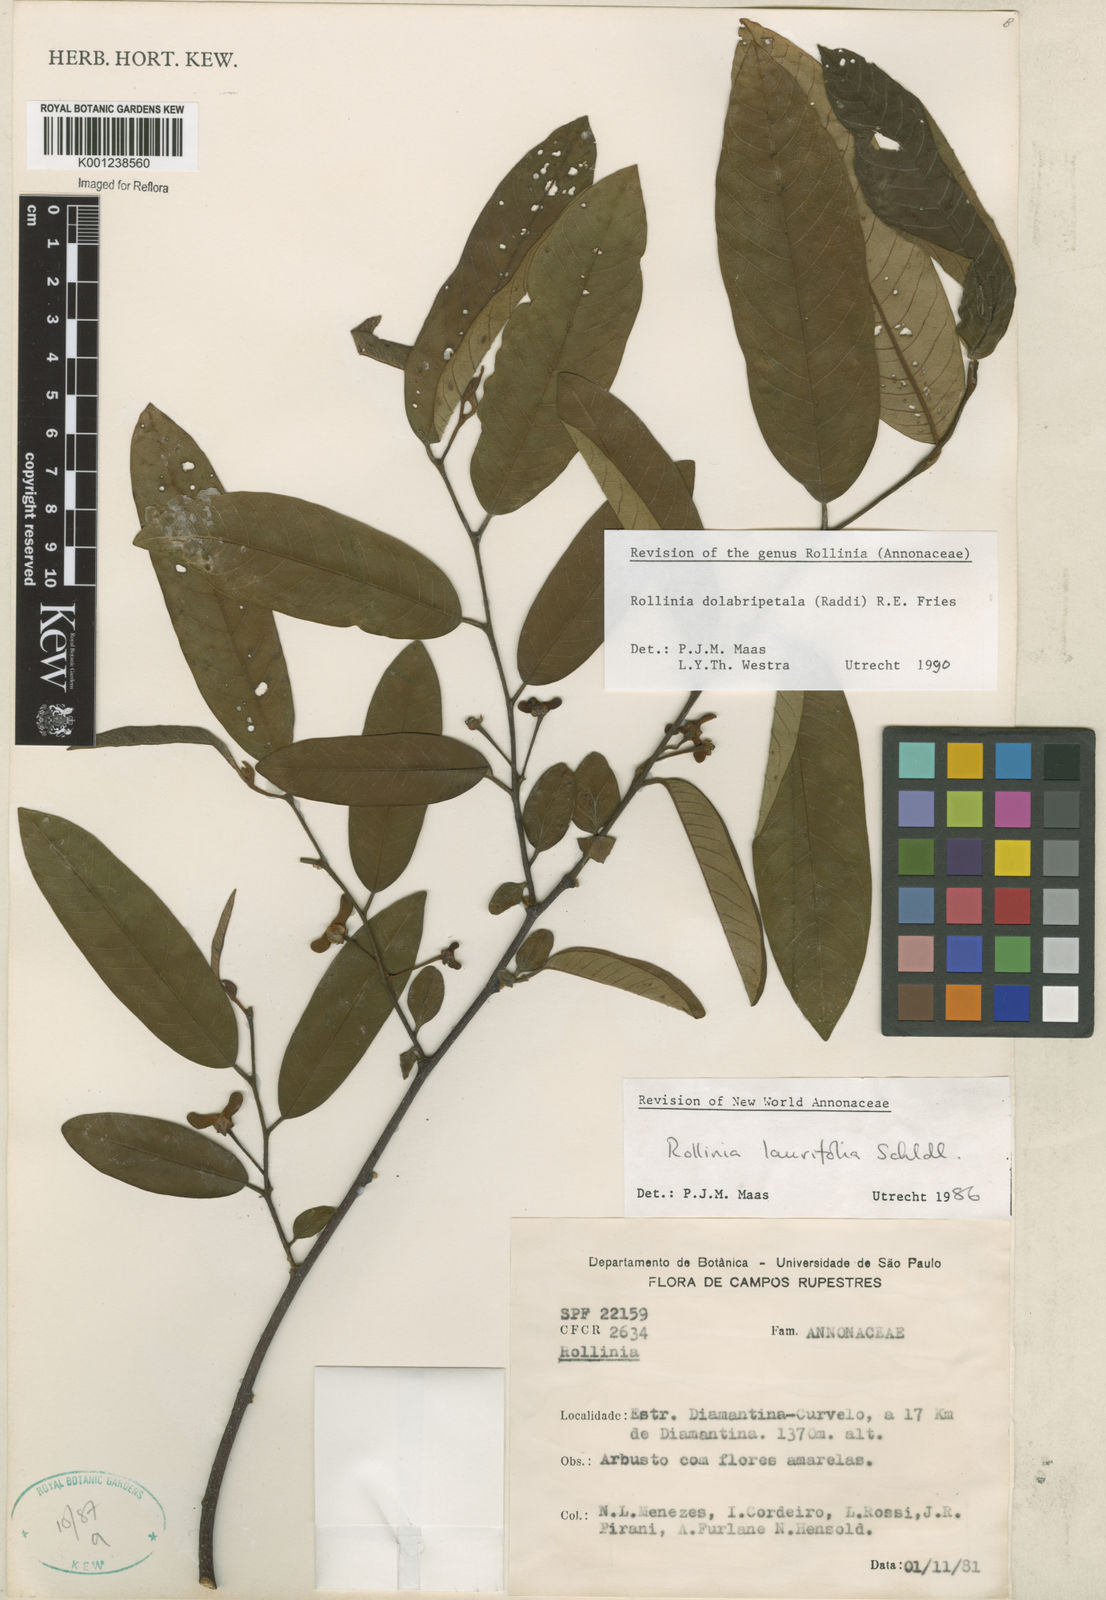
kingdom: Plantae
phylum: Tracheophyta
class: Magnoliopsida
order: Magnoliales
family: Annonaceae
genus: Annona
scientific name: Annona
